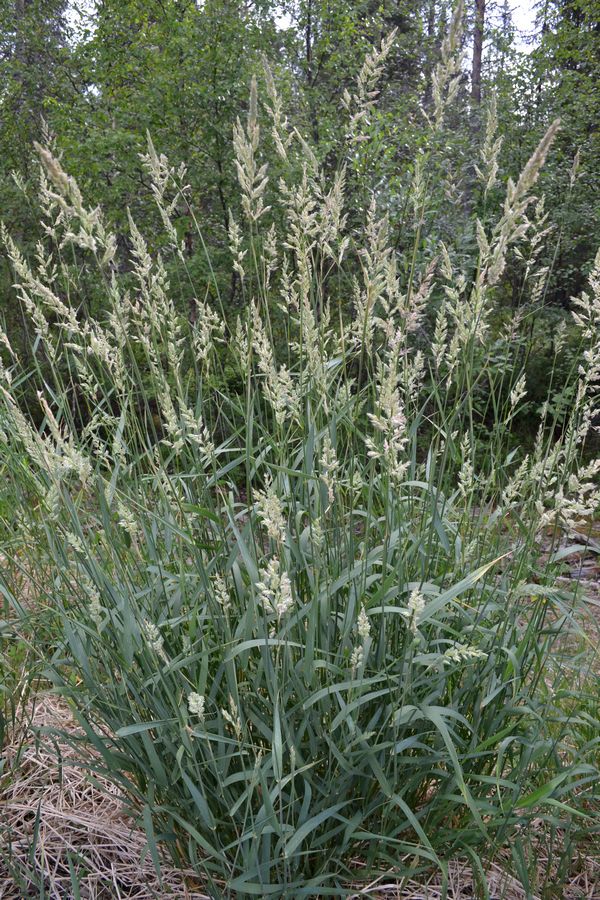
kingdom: Plantae
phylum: Tracheophyta
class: Liliopsida
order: Poales
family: Poaceae
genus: Phalaris
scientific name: Phalaris arundinacea
